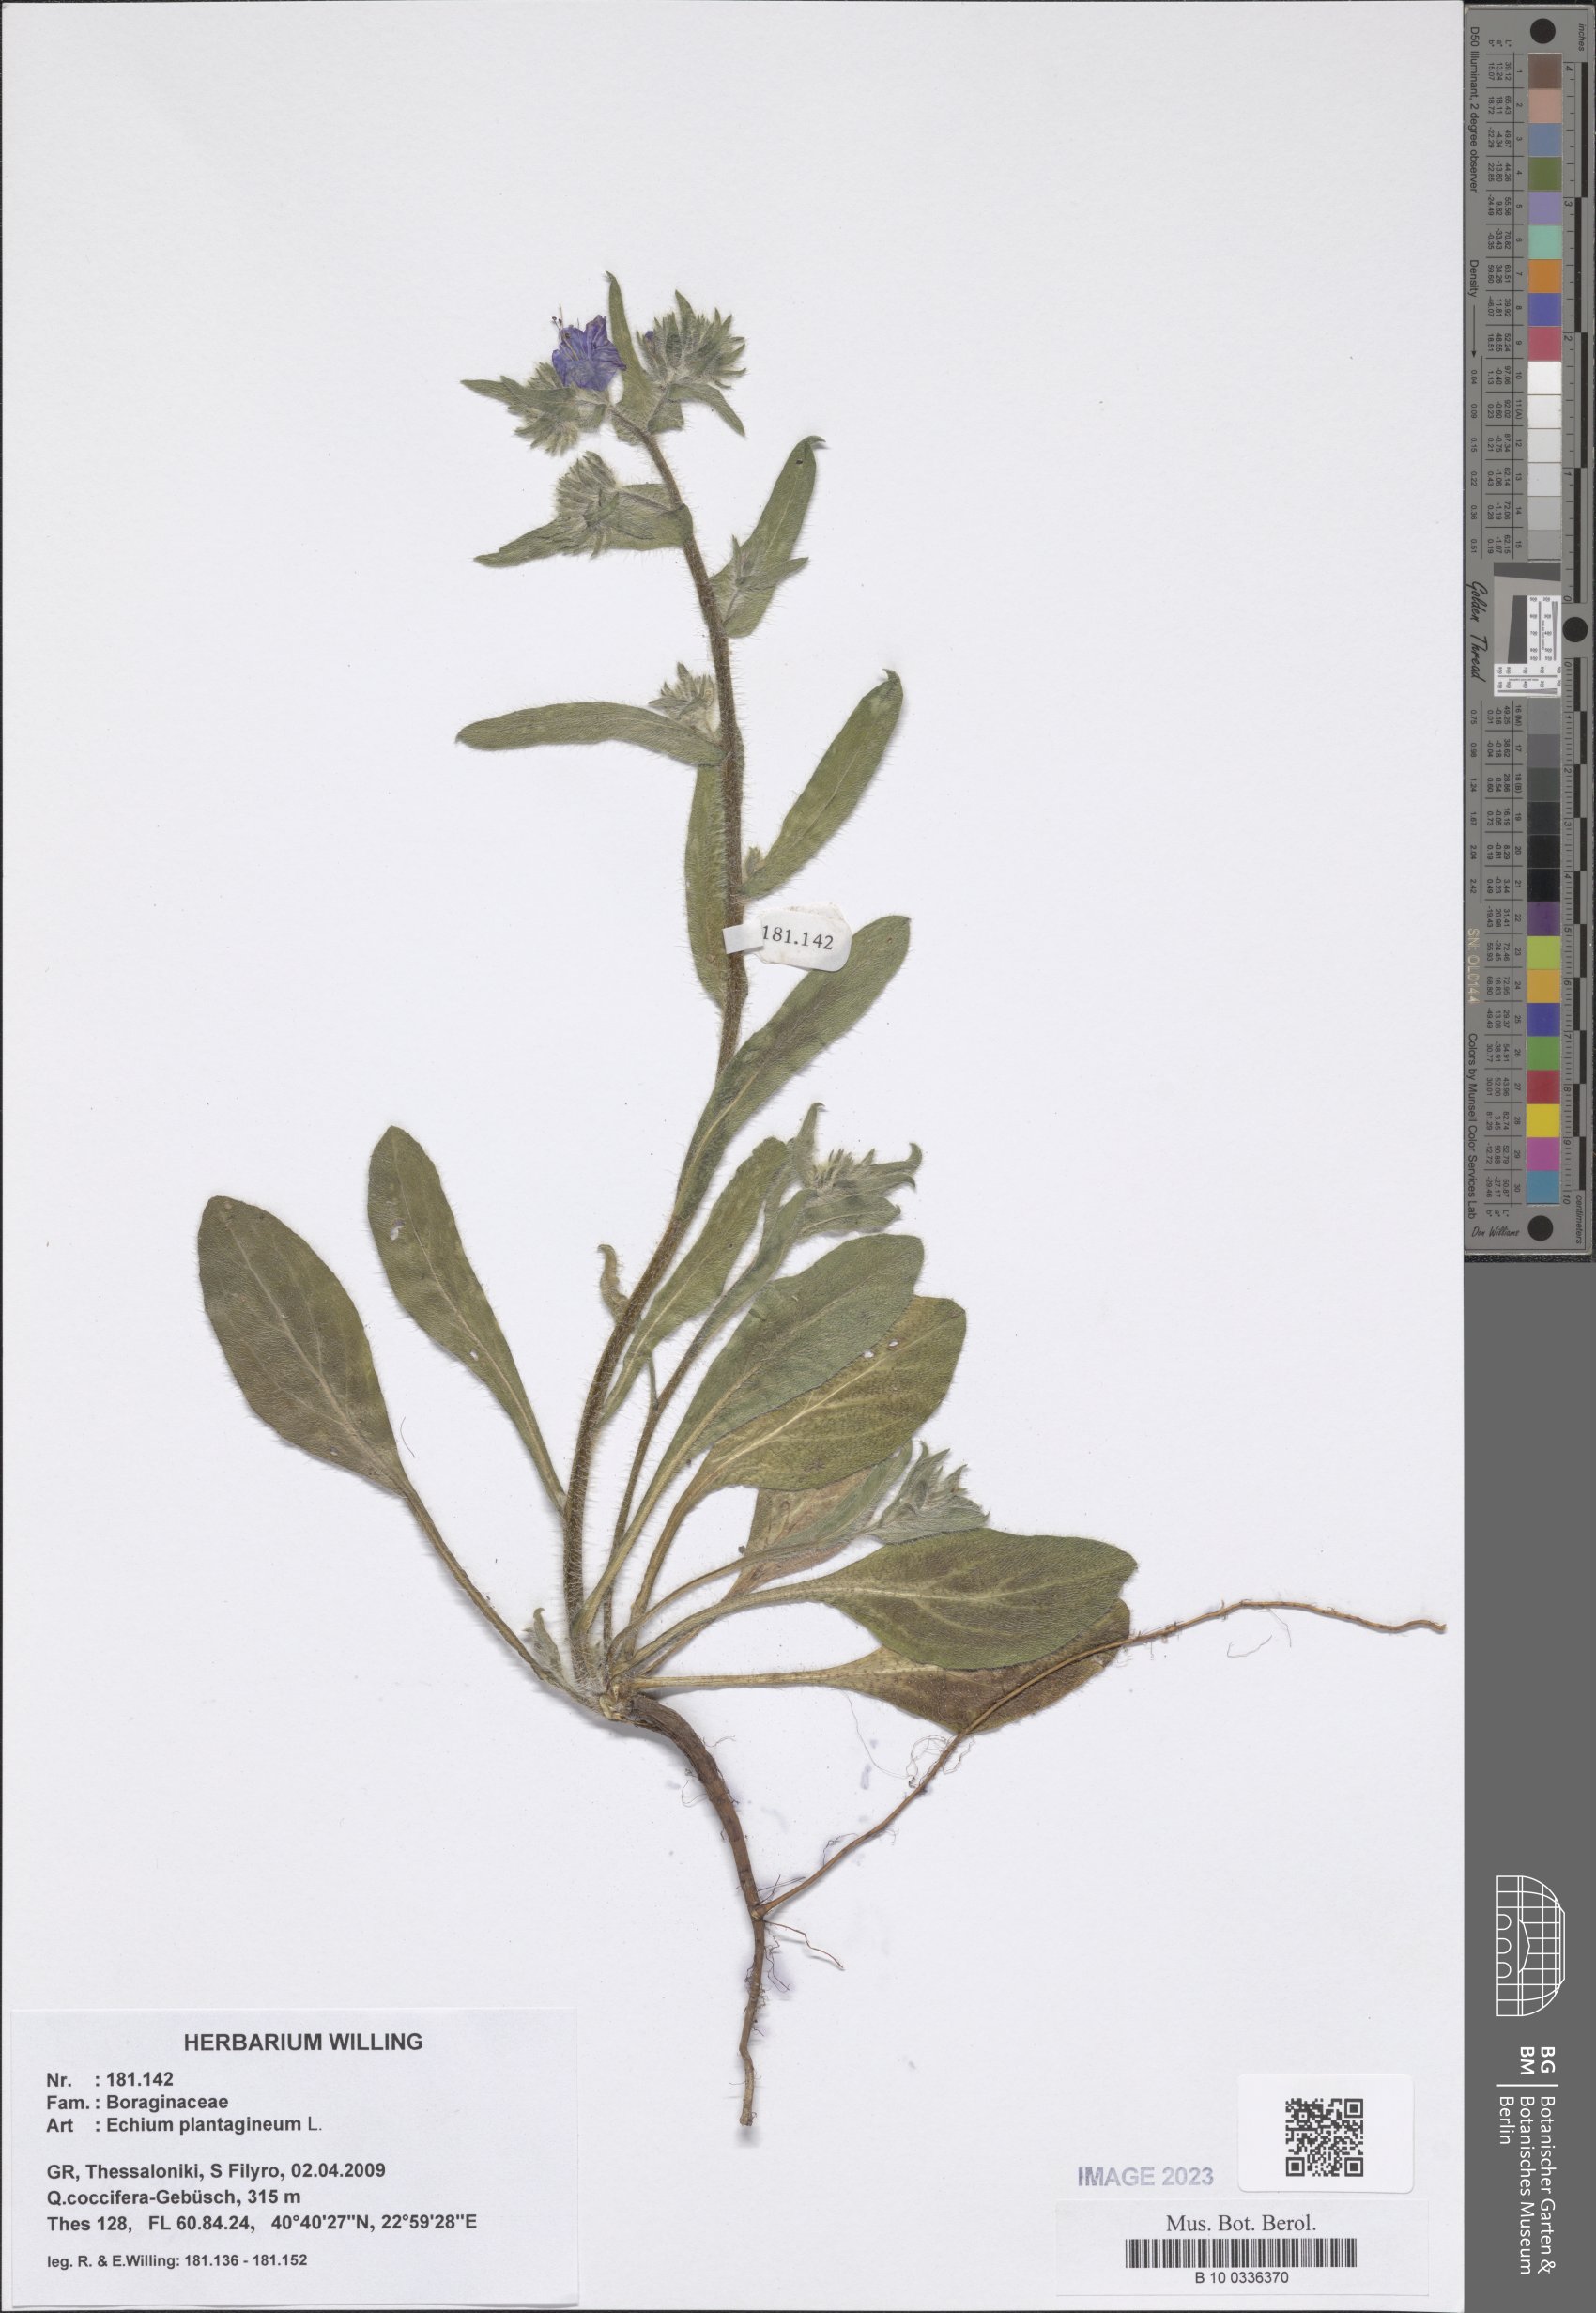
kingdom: Plantae
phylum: Tracheophyta
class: Magnoliopsida
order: Boraginales
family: Boraginaceae
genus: Echium
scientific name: Echium plantagineum
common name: Purple viper's-bugloss
